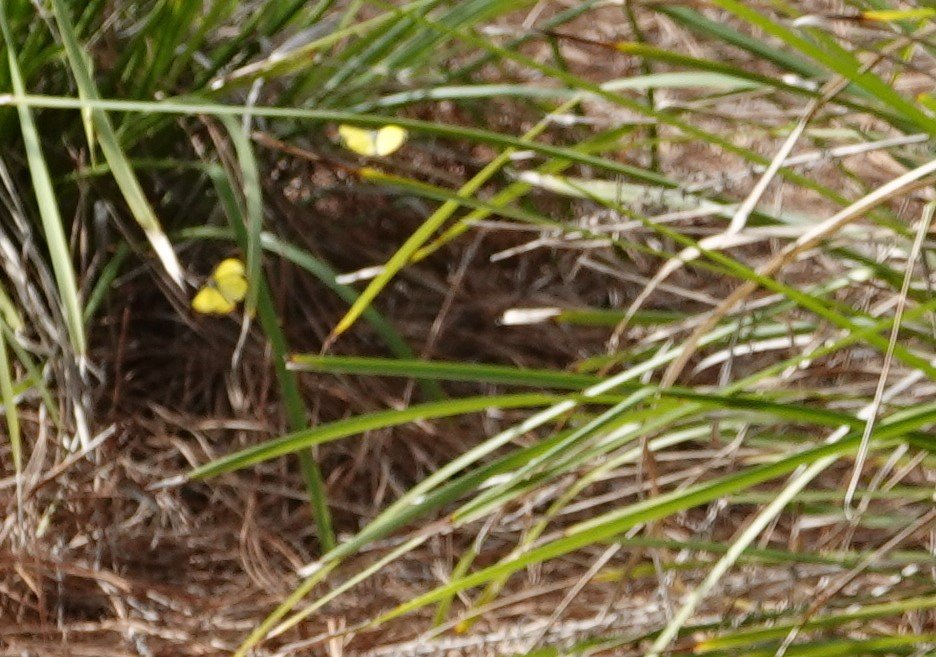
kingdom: Animalia
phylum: Arthropoda
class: Insecta
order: Lepidoptera
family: Pieridae
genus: Pyrisitia
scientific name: Pyrisitia lisa
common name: Little Yellow
